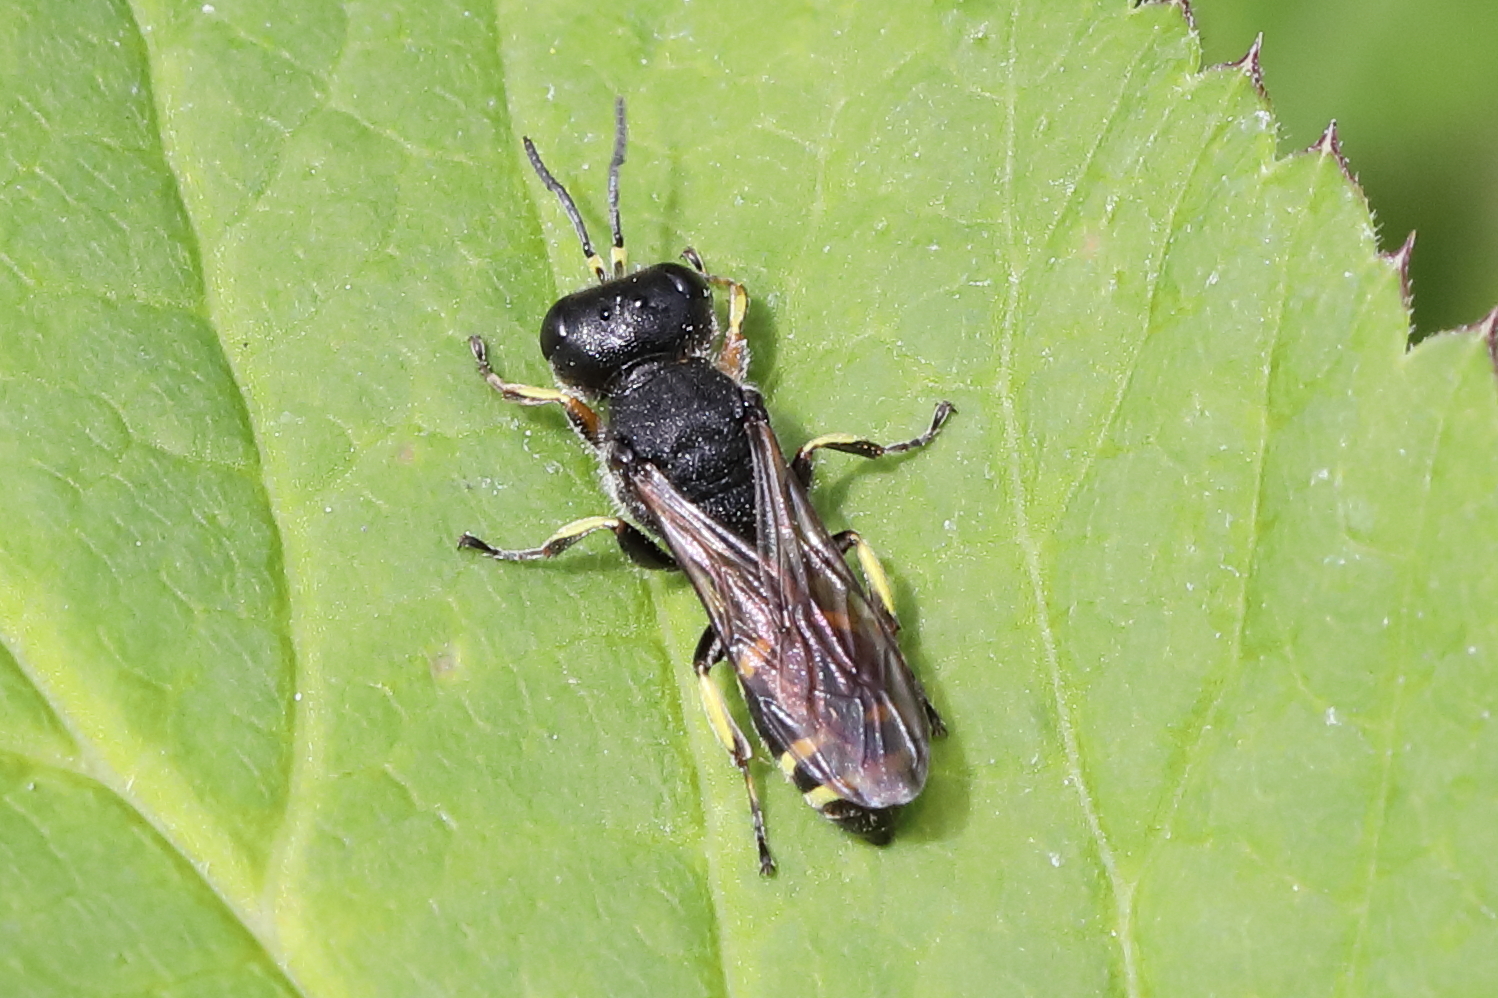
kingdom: Animalia
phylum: Arthropoda
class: Insecta
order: Hymenoptera
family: Crabronidae
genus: Ectemnius
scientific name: Ectemnius continuus
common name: Common ectemnius
